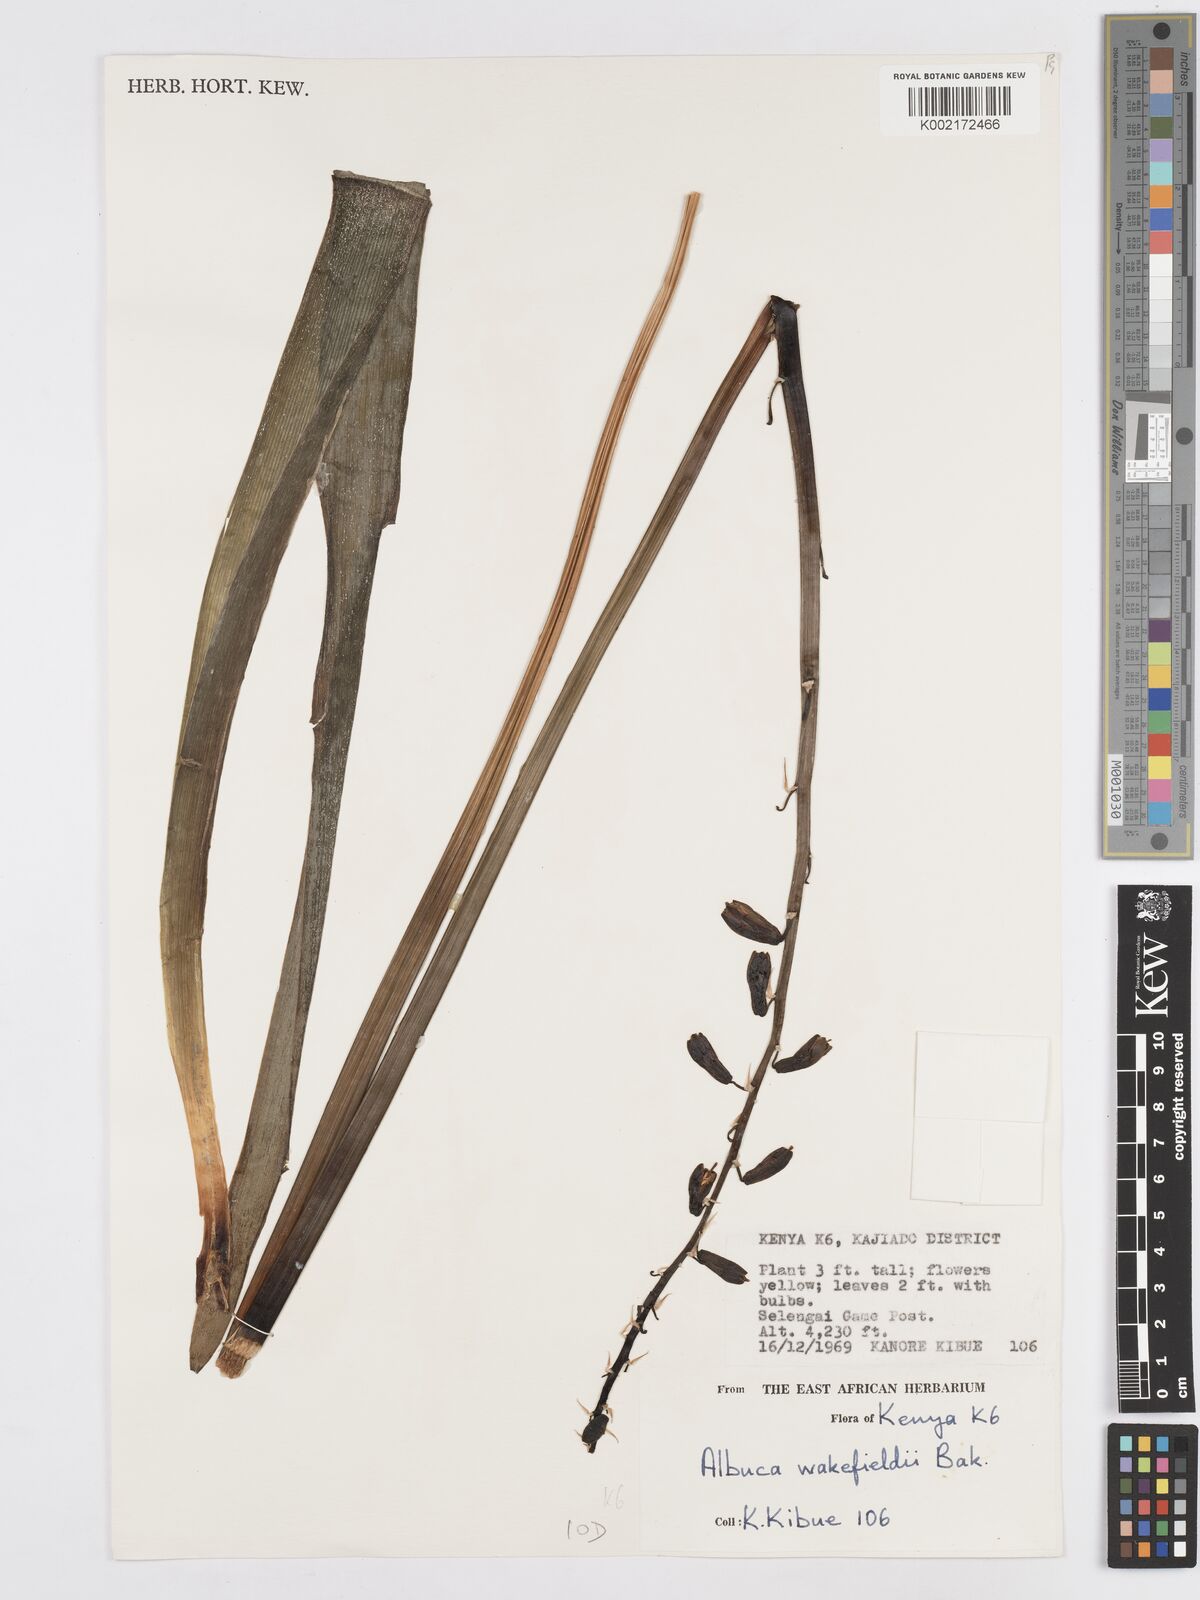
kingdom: Plantae
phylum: Tracheophyta
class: Liliopsida
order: Asparagales
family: Asparagaceae
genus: Albuca
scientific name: Albuca abyssinica
